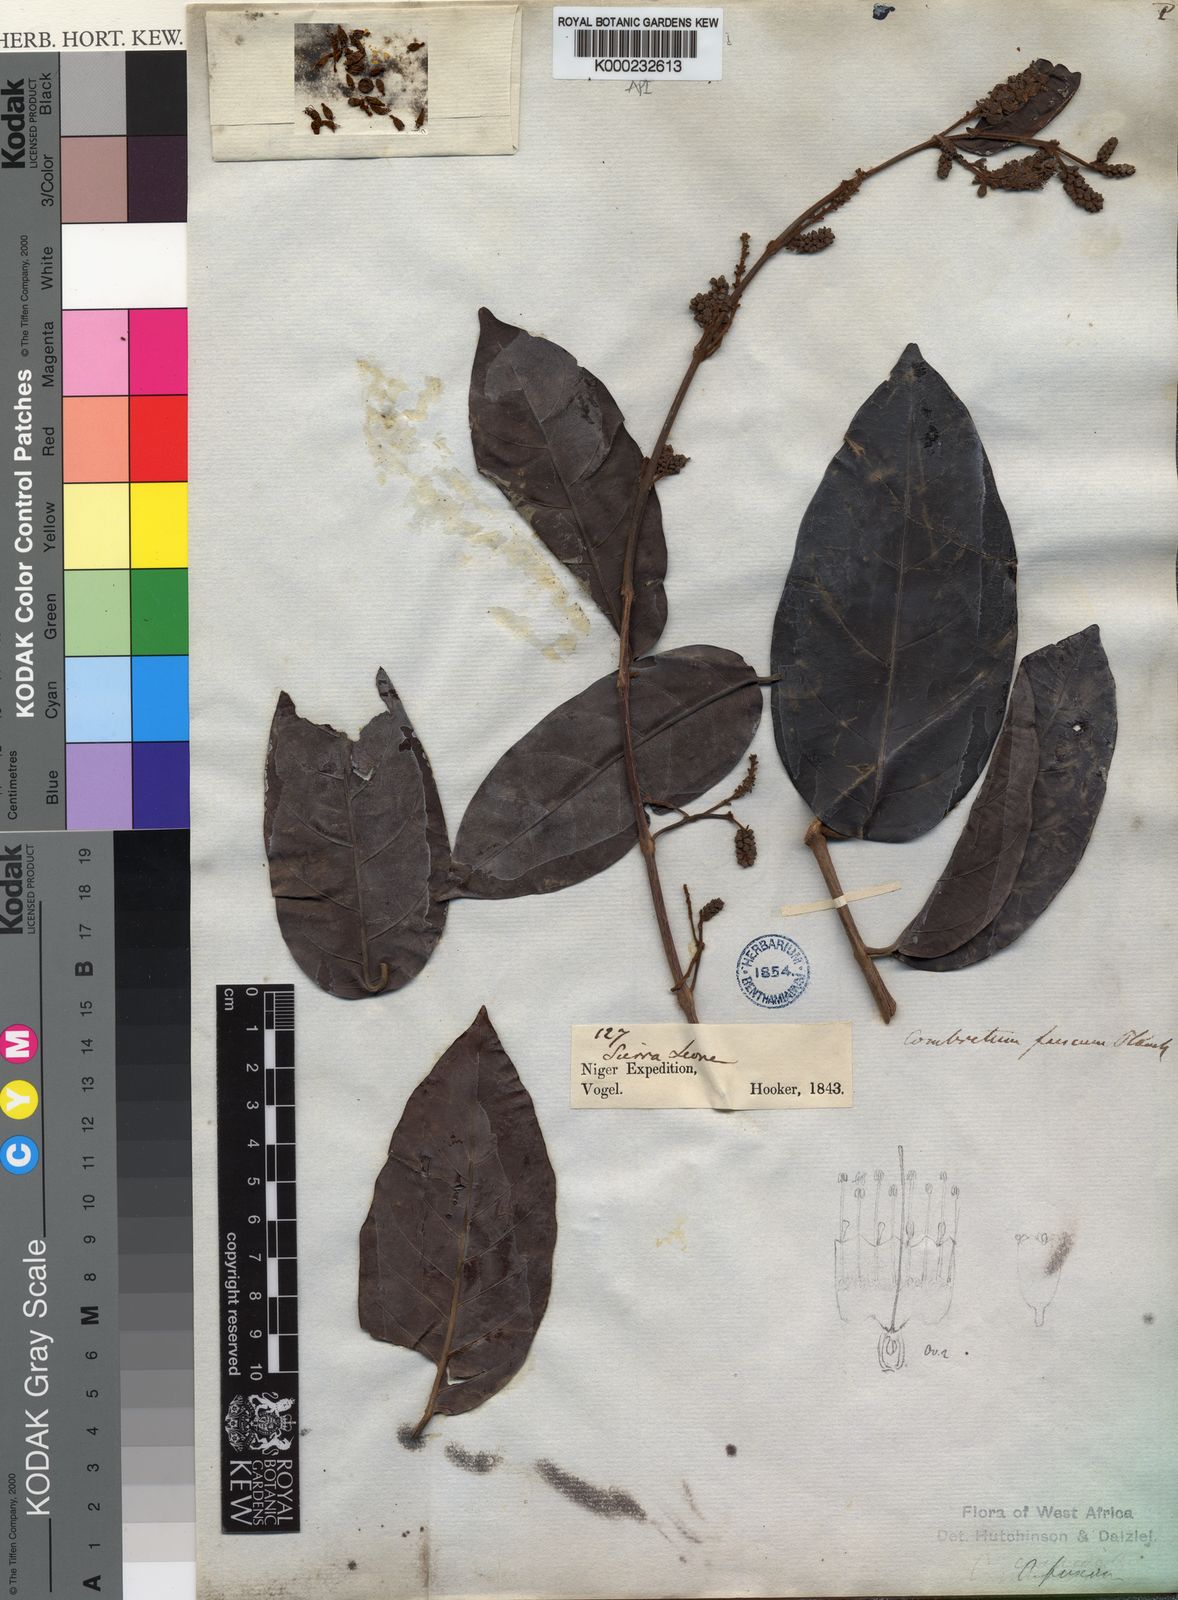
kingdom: Plantae
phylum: Tracheophyta
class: Magnoliopsida
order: Myrtales
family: Combretaceae
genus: Combretum
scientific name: Combretum fuscum
